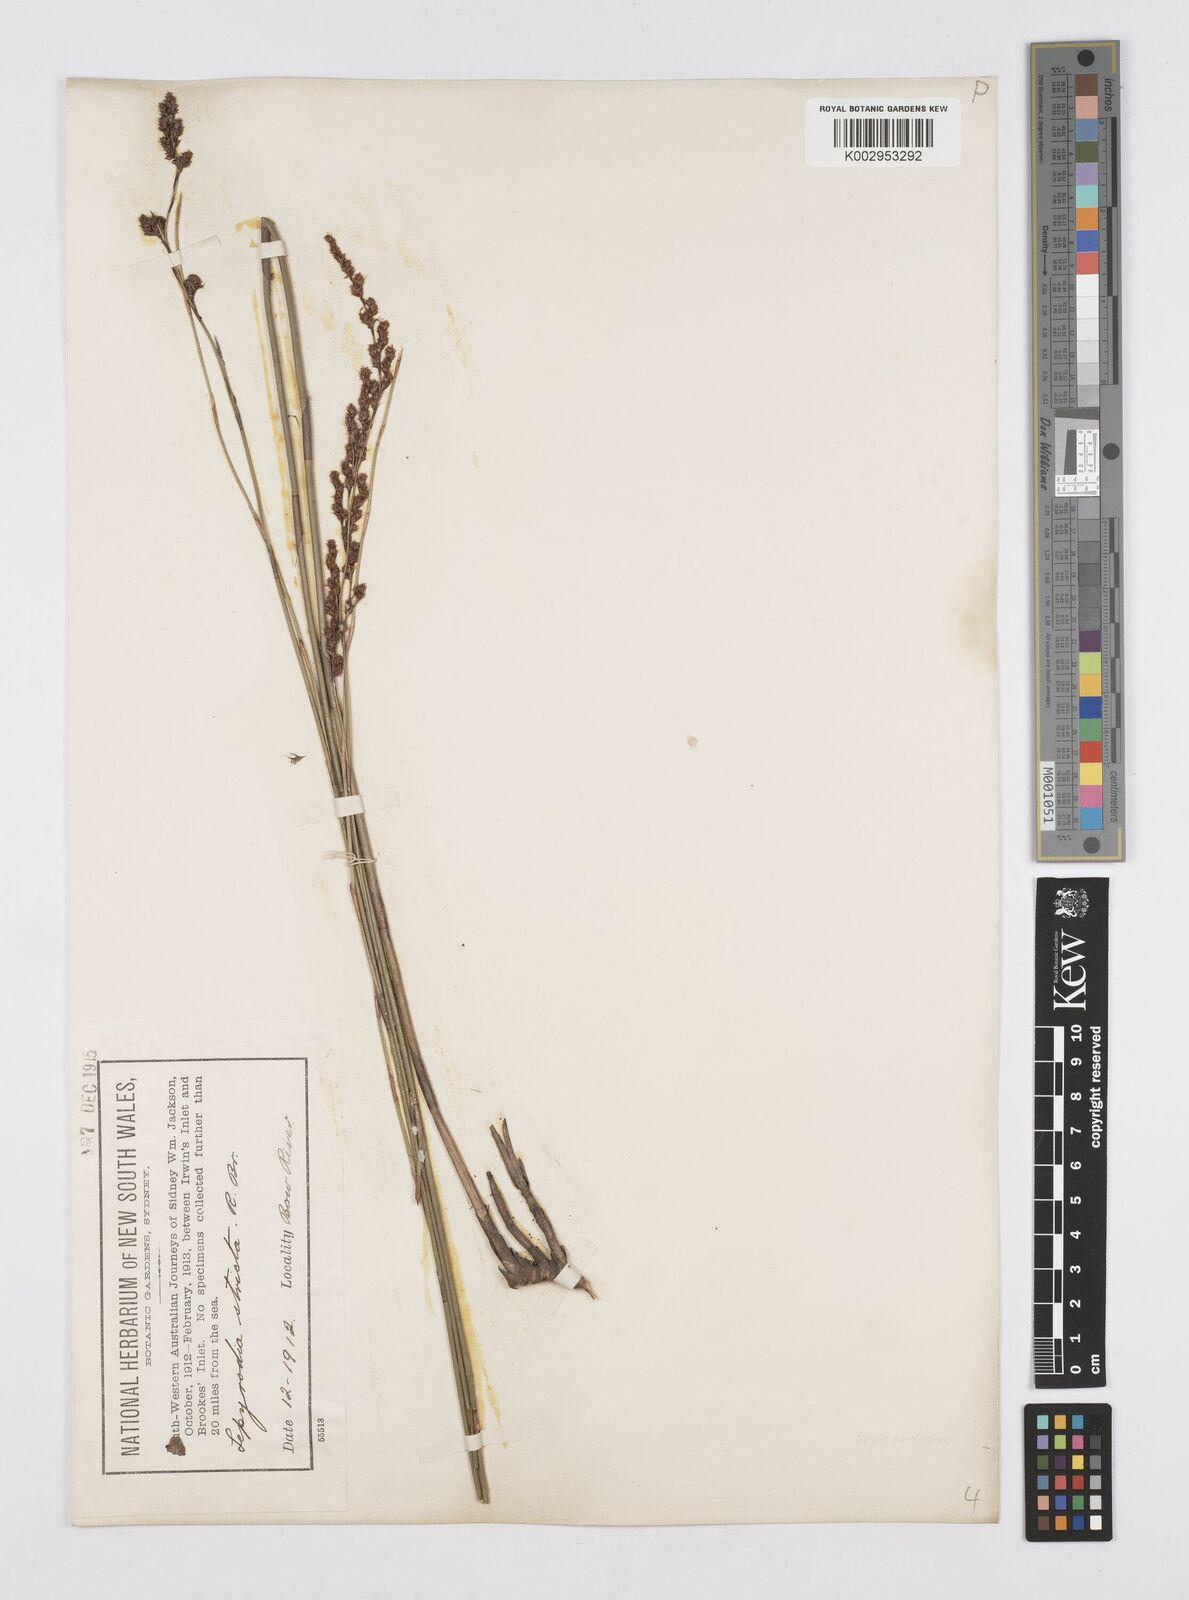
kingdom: Plantae
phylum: Tracheophyta
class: Liliopsida
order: Poales
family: Restionaceae
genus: Sporadanthus
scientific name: Sporadanthus strictus
